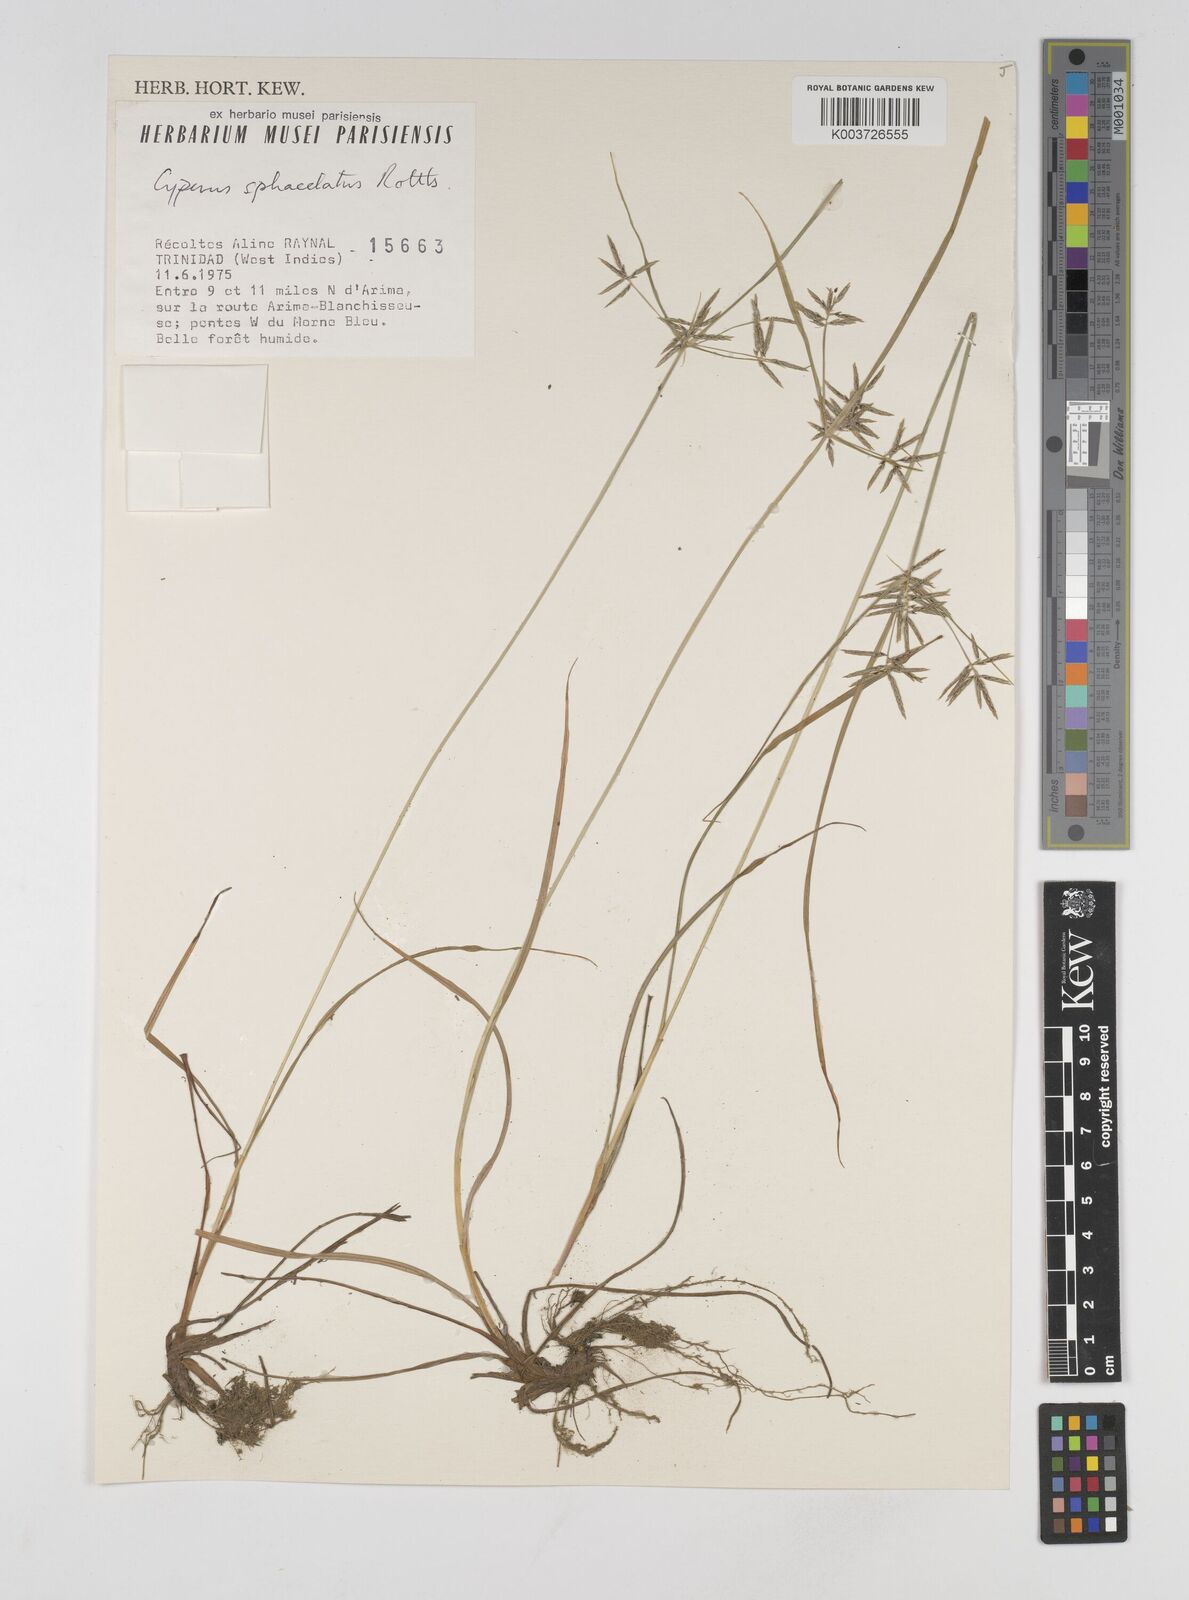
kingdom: Plantae
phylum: Tracheophyta
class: Liliopsida
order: Poales
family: Cyperaceae
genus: Cyperus
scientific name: Cyperus sphacelatus
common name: Roadside flatsedge
